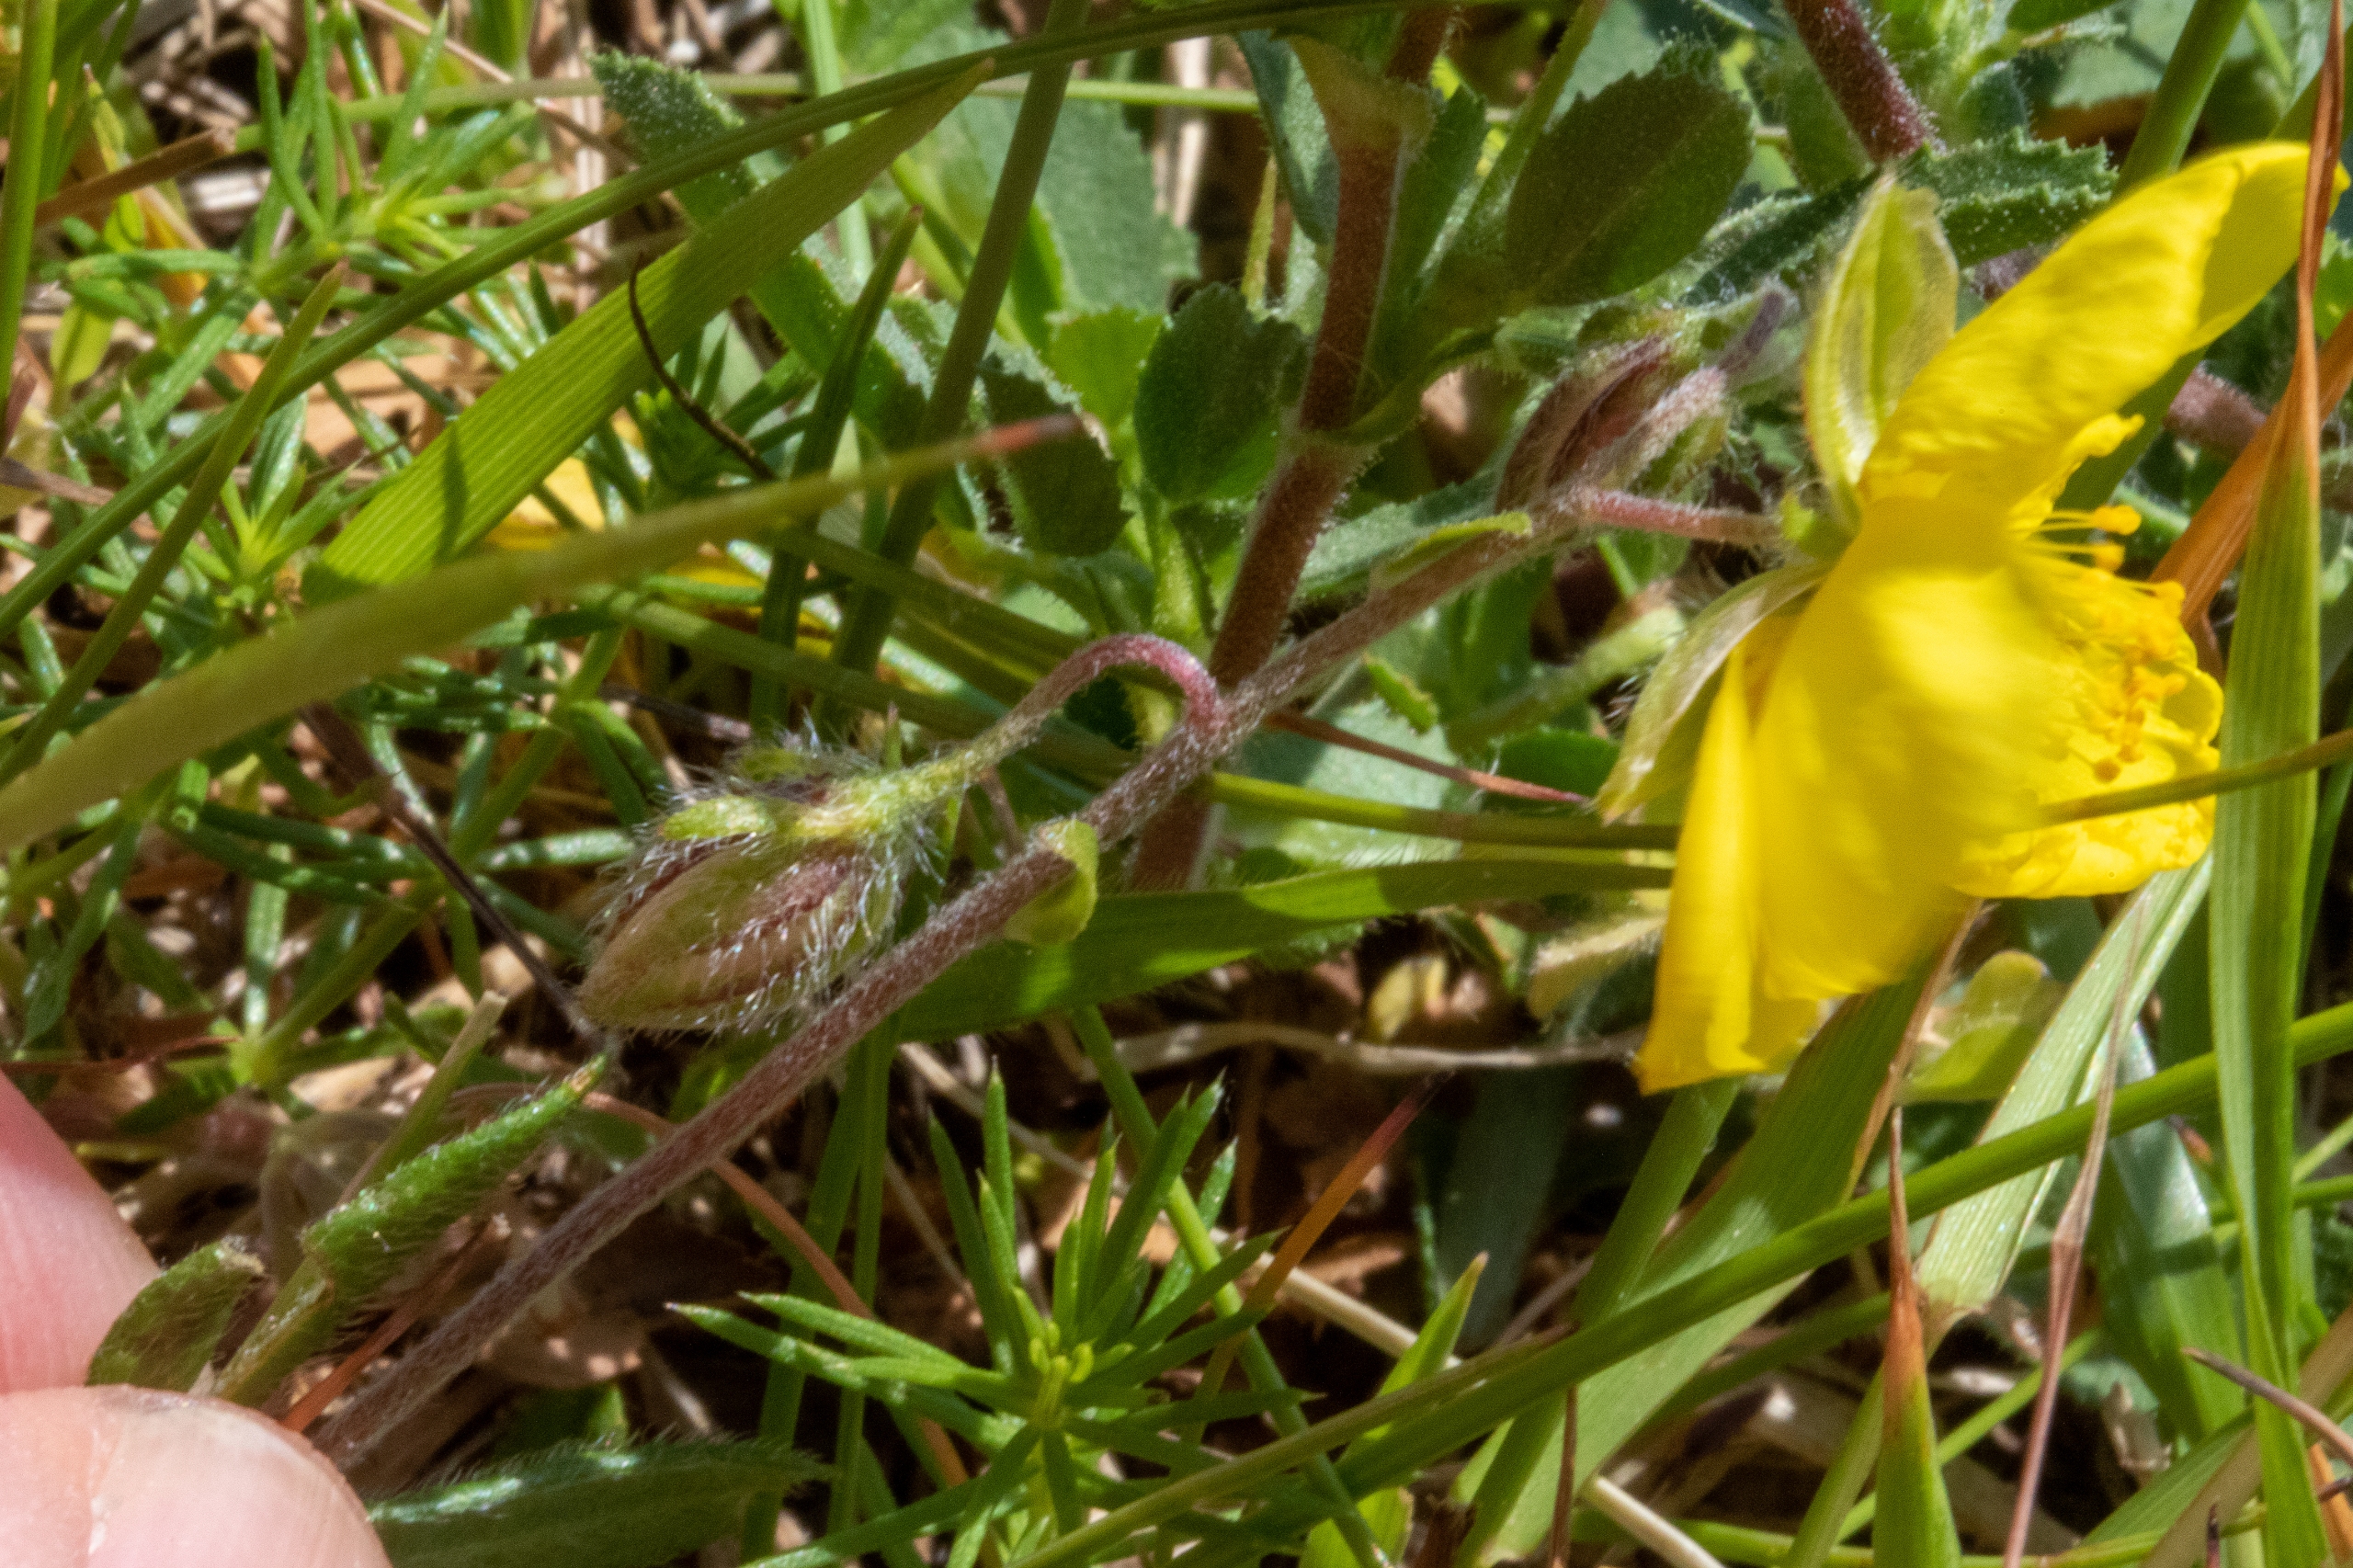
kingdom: Plantae
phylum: Tracheophyta
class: Magnoliopsida
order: Malvales
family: Cistaceae
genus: Helianthemum
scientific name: Helianthemum nummularium
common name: Soløje
